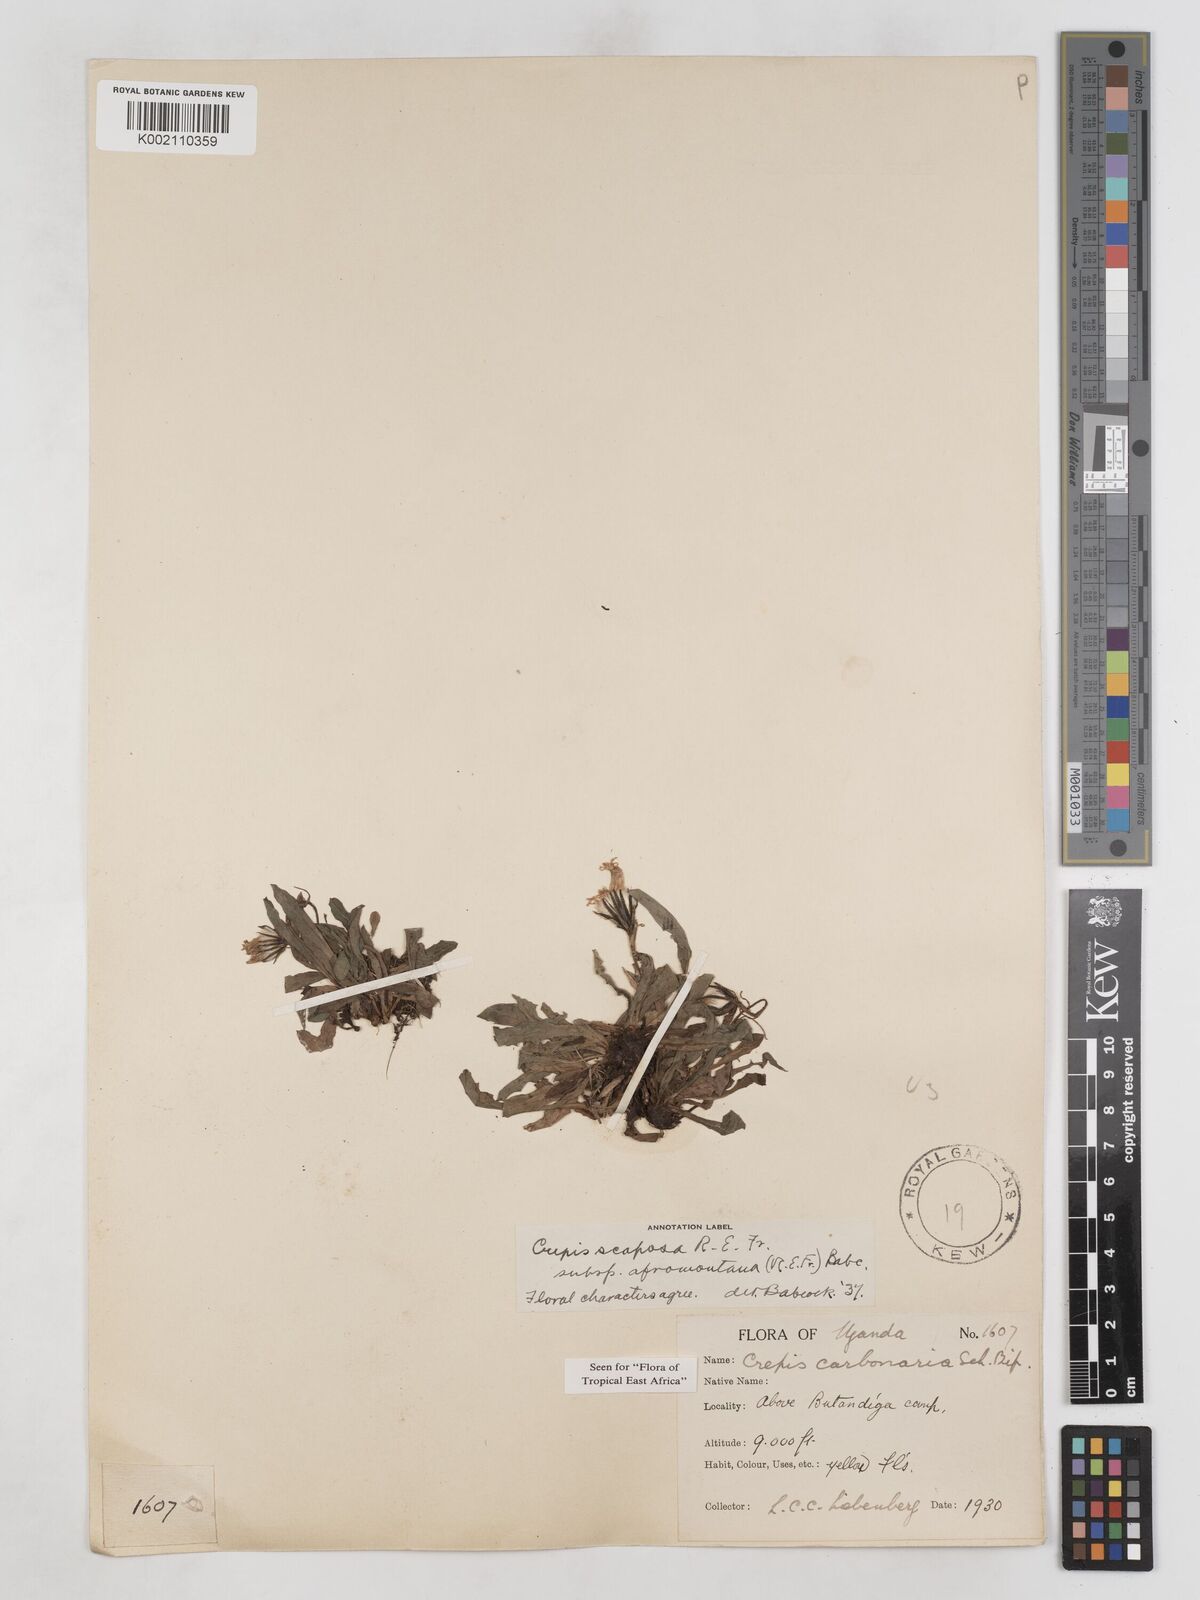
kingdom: Plantae
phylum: Tracheophyta
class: Magnoliopsida
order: Asterales
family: Asteraceae
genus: Crepis
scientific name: Crepis carbonaria
